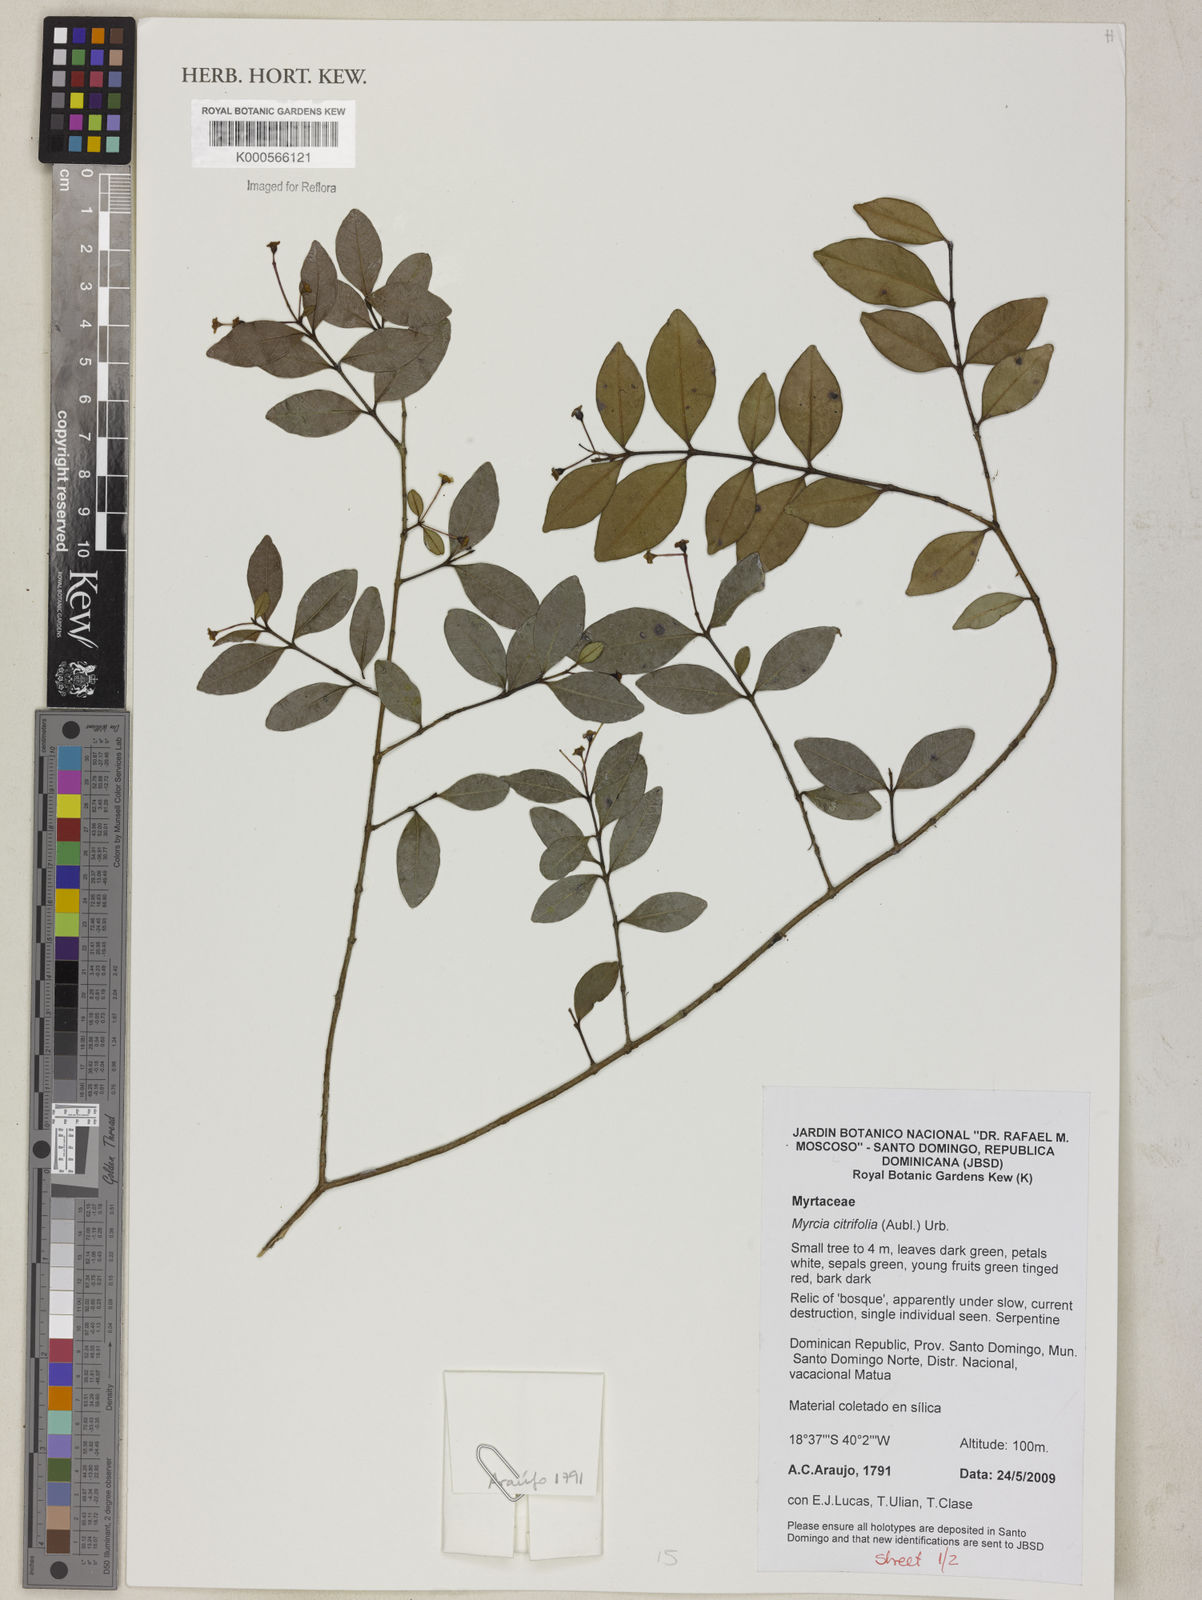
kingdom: Plantae
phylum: Tracheophyta
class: Magnoliopsida
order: Myrtales
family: Myrtaceae
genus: Myrcia
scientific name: Myrcia guianensis
